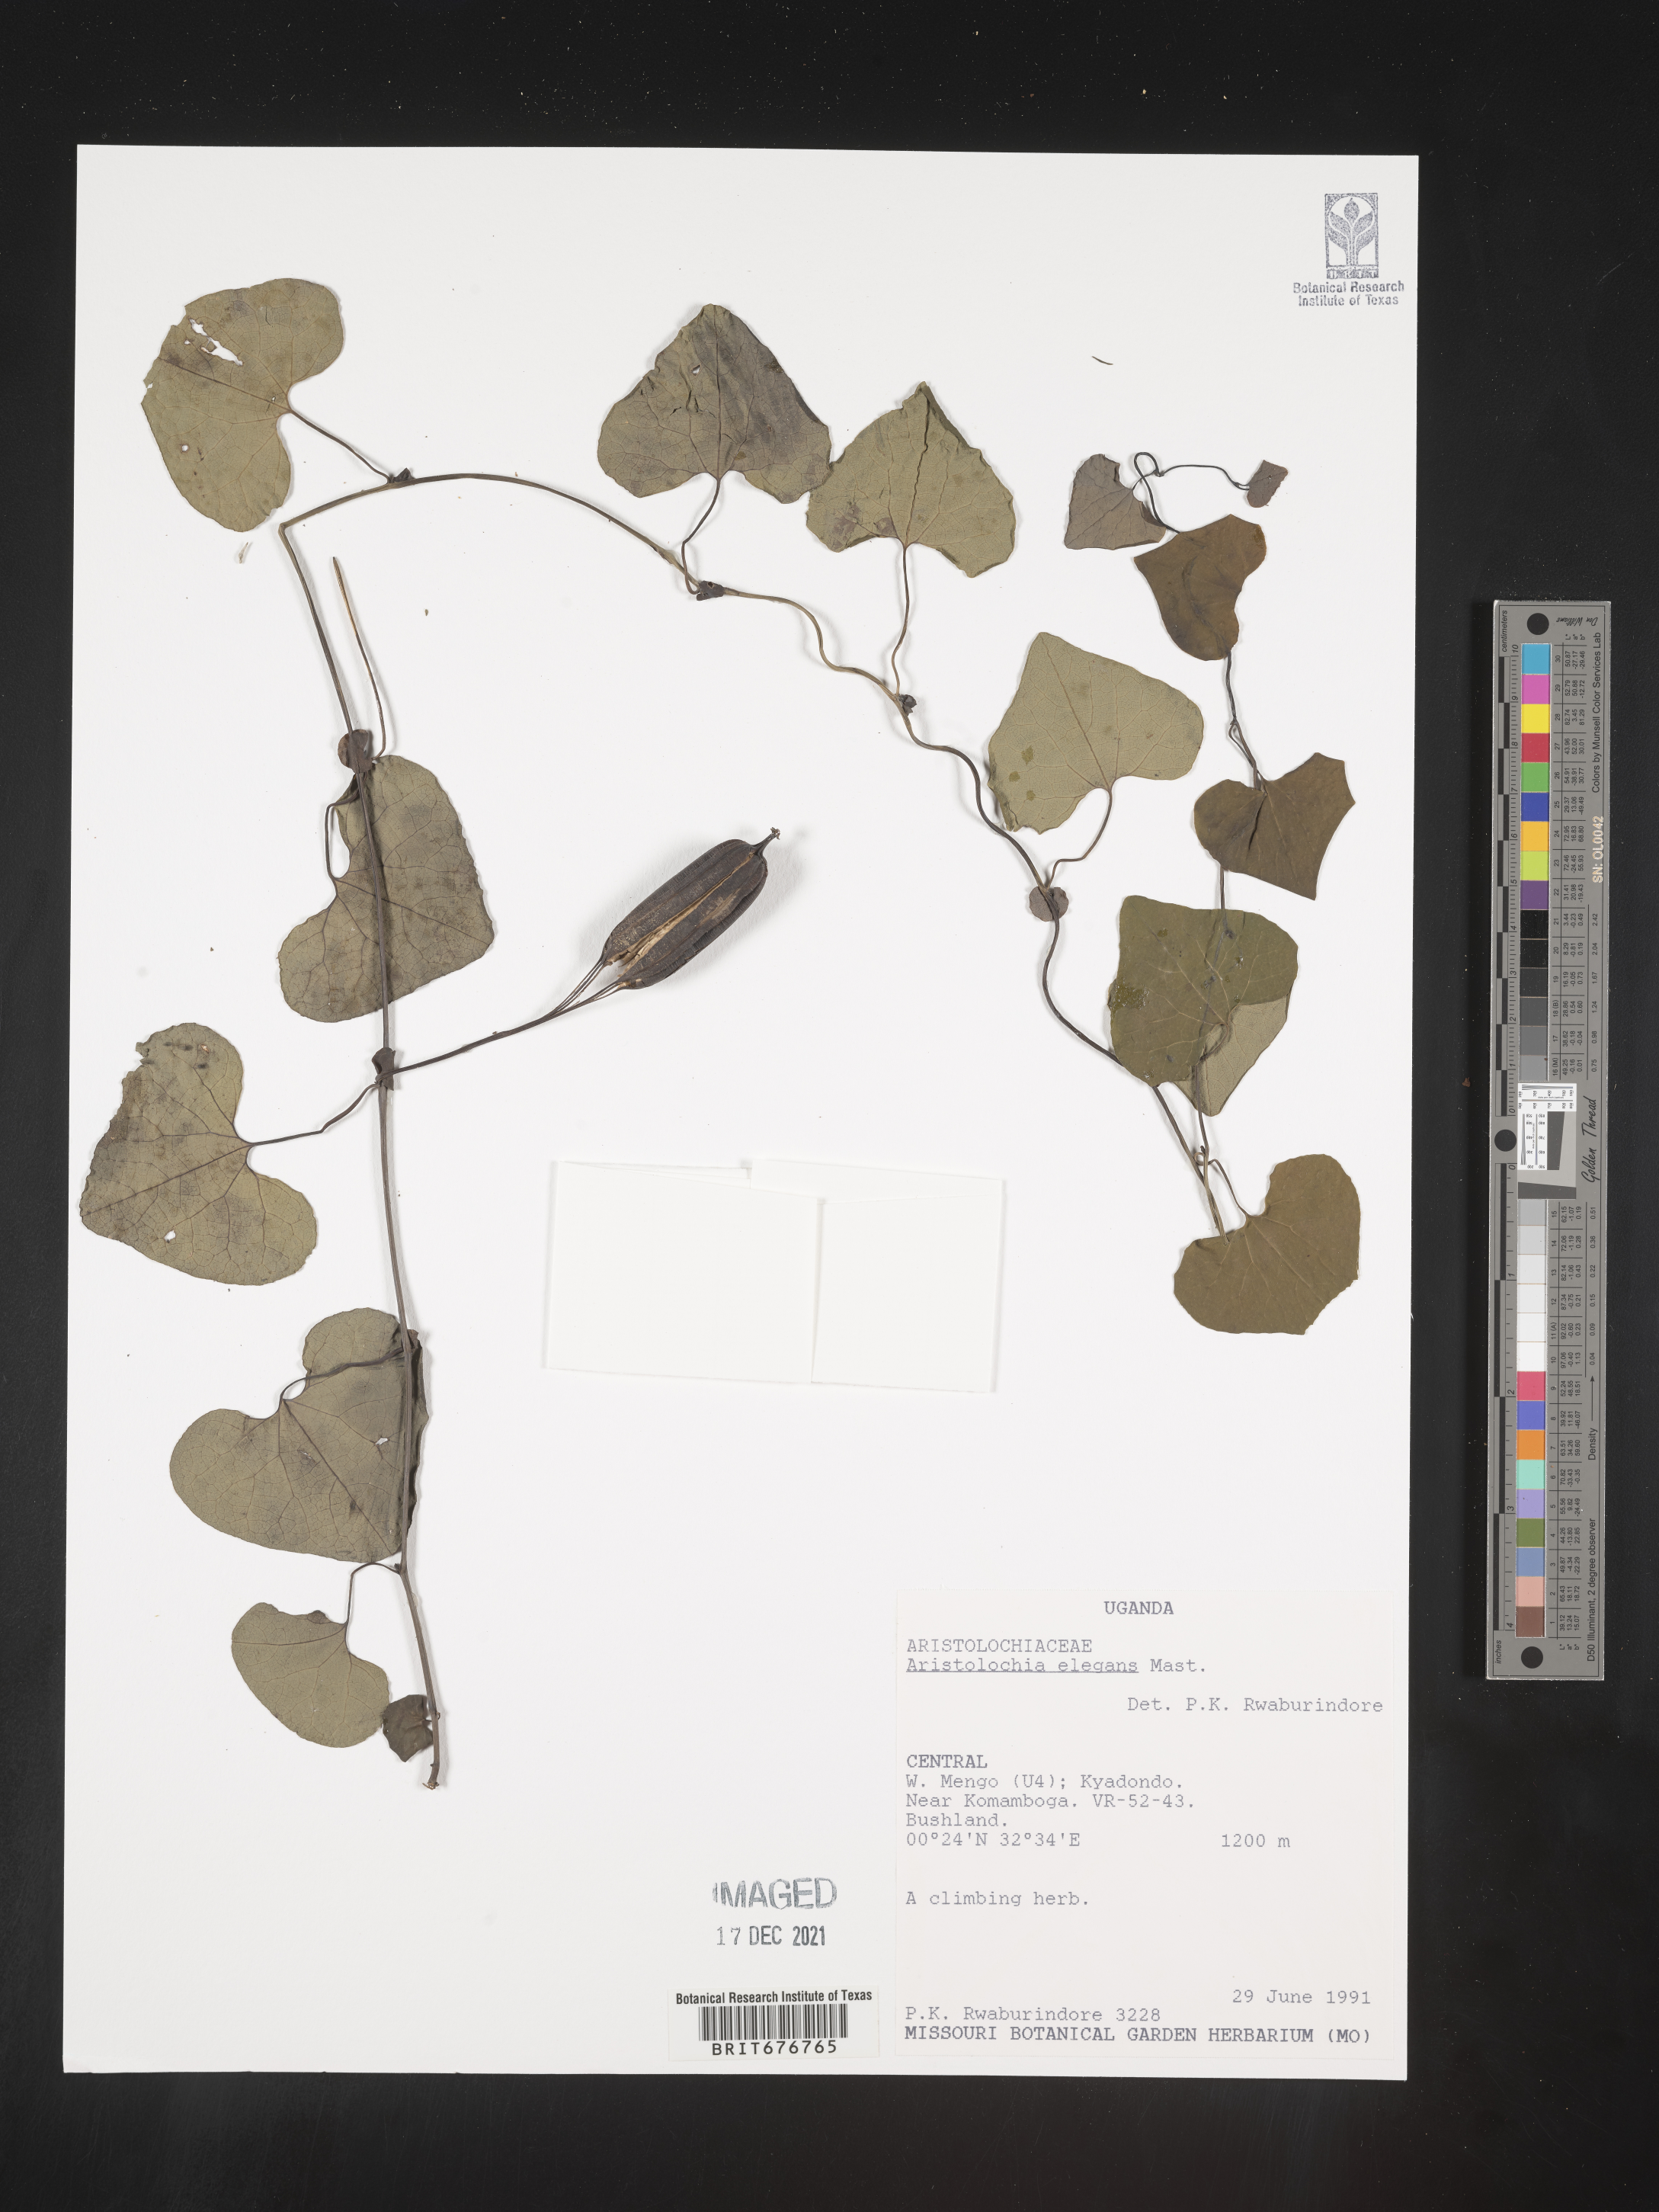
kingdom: Plantae
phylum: Tracheophyta
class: Magnoliopsida
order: Piperales
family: Aristolochiaceae
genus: Aristolochia
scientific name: Aristolochia
